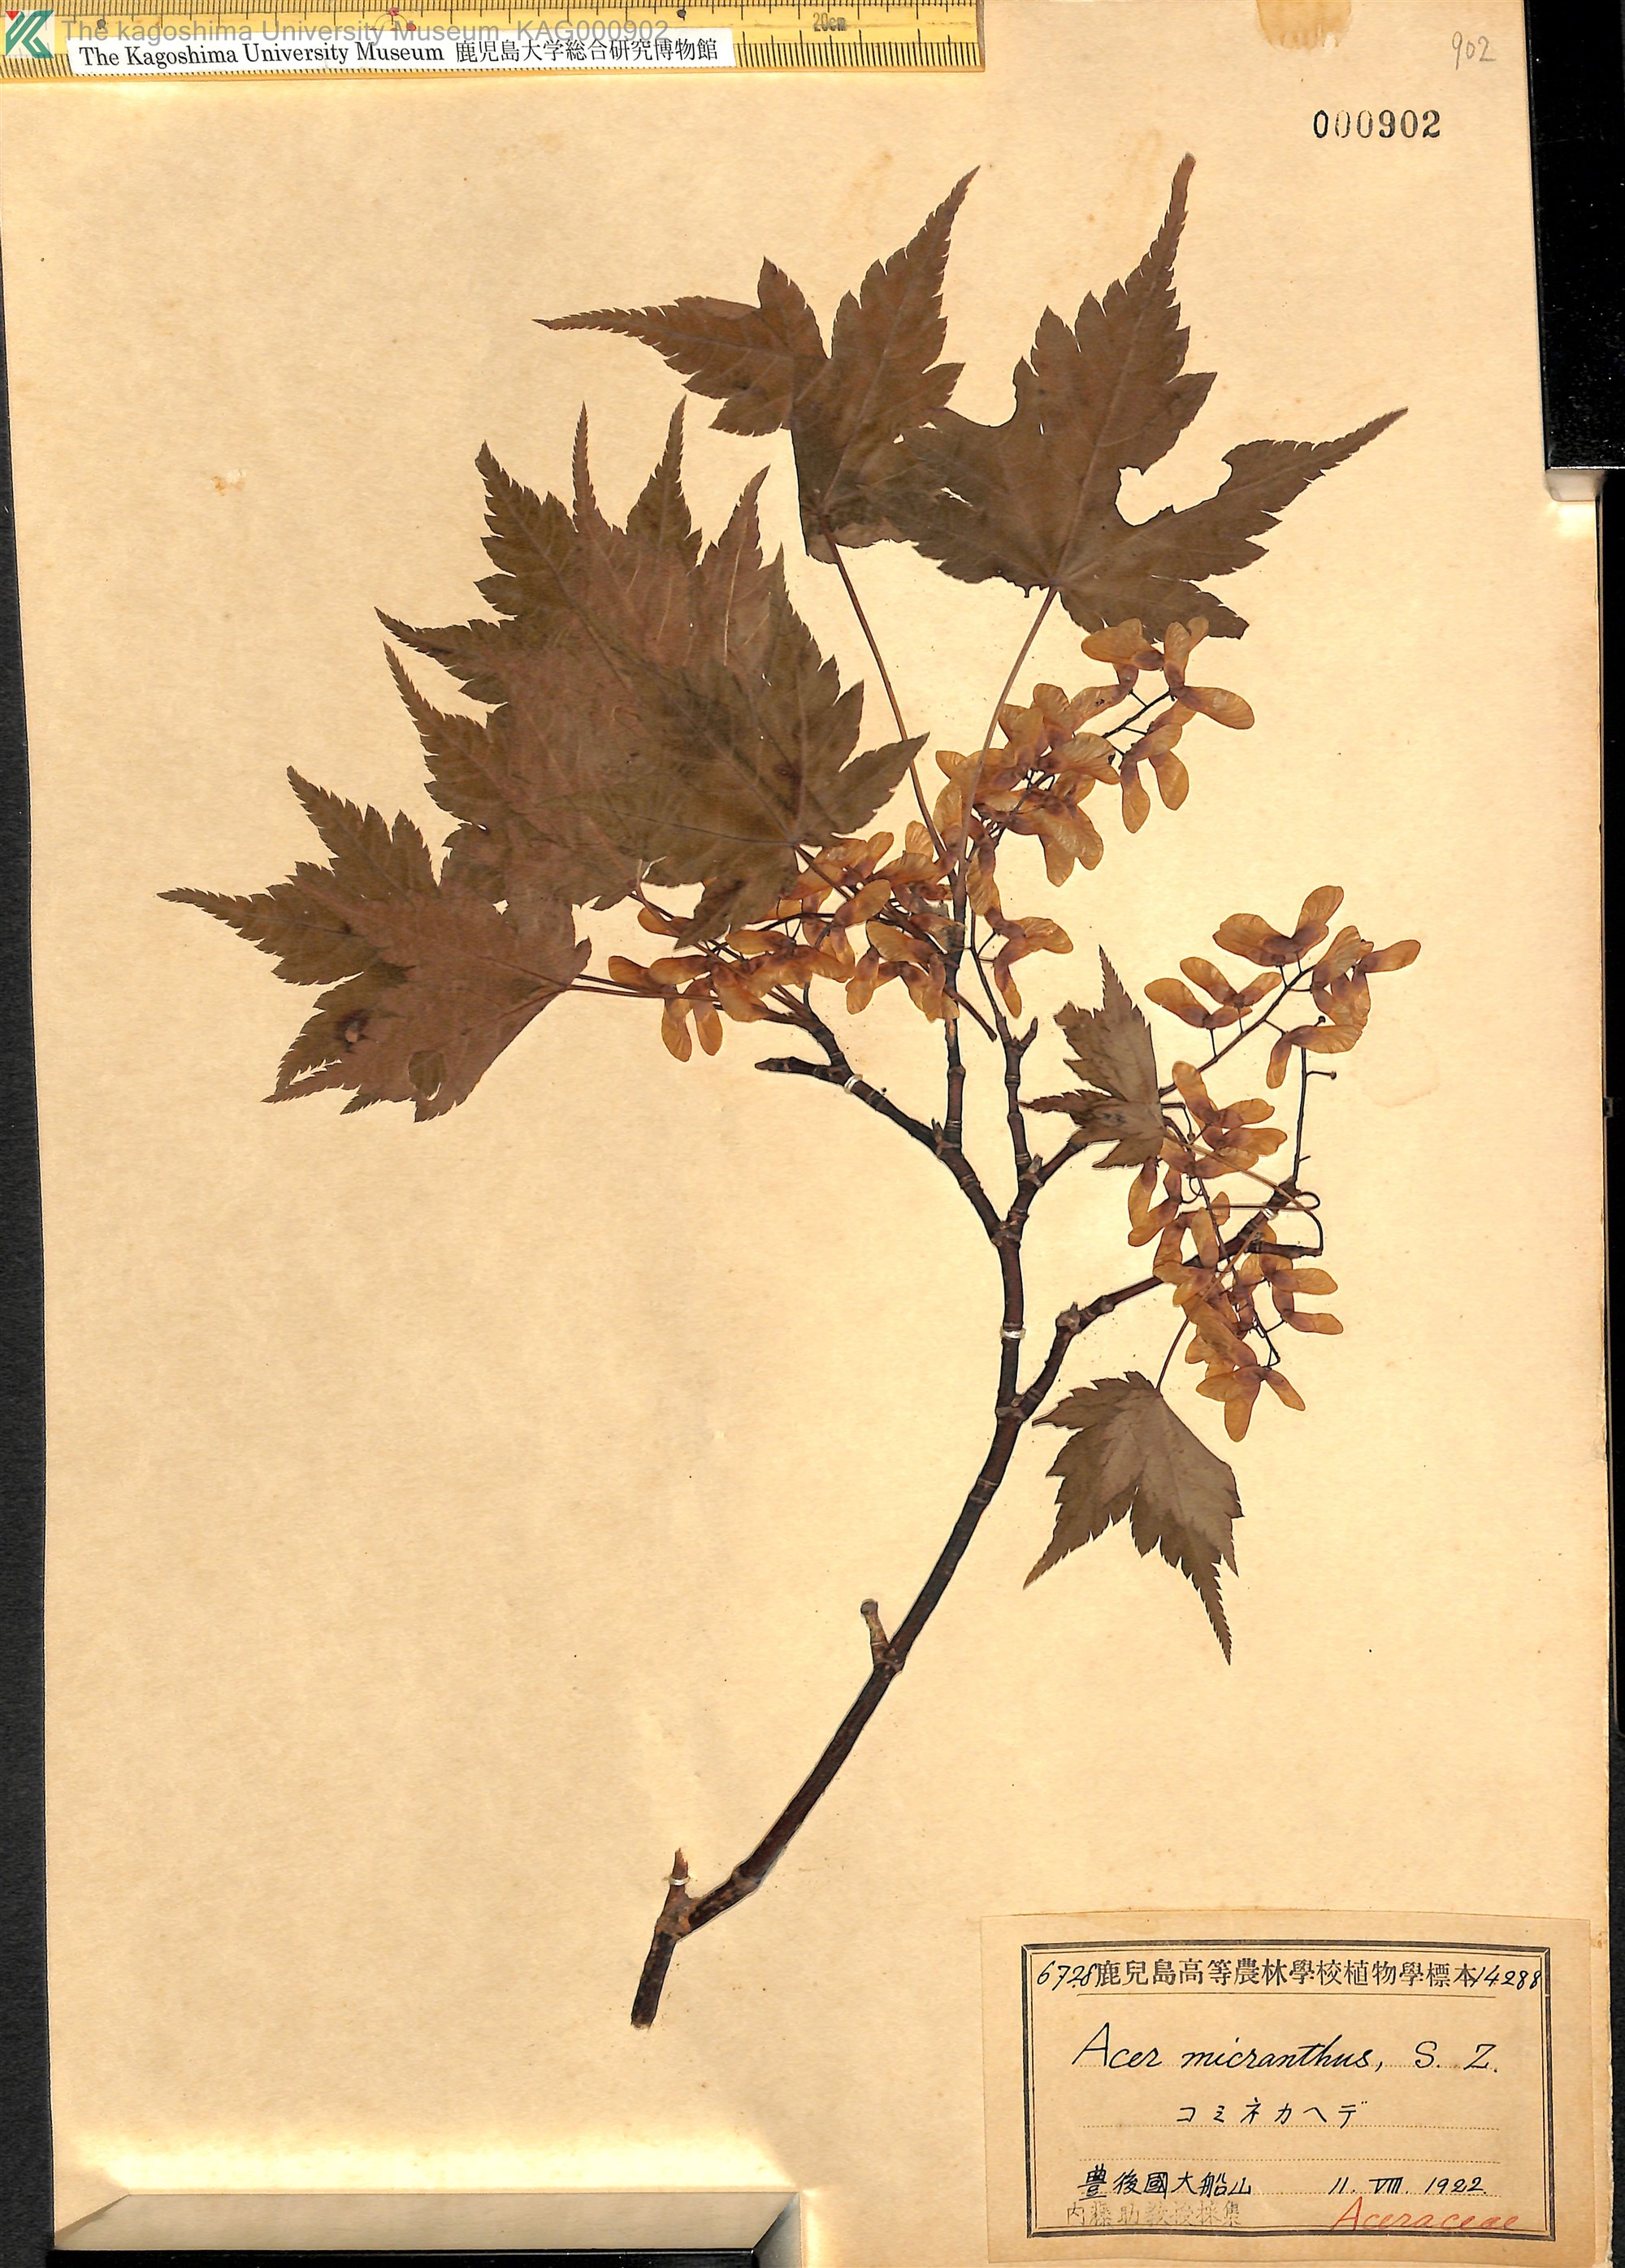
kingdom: Plantae
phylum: Tracheophyta
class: Magnoliopsida
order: Sapindales
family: Sapindaceae
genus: Acer
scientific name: Acer micranthum
